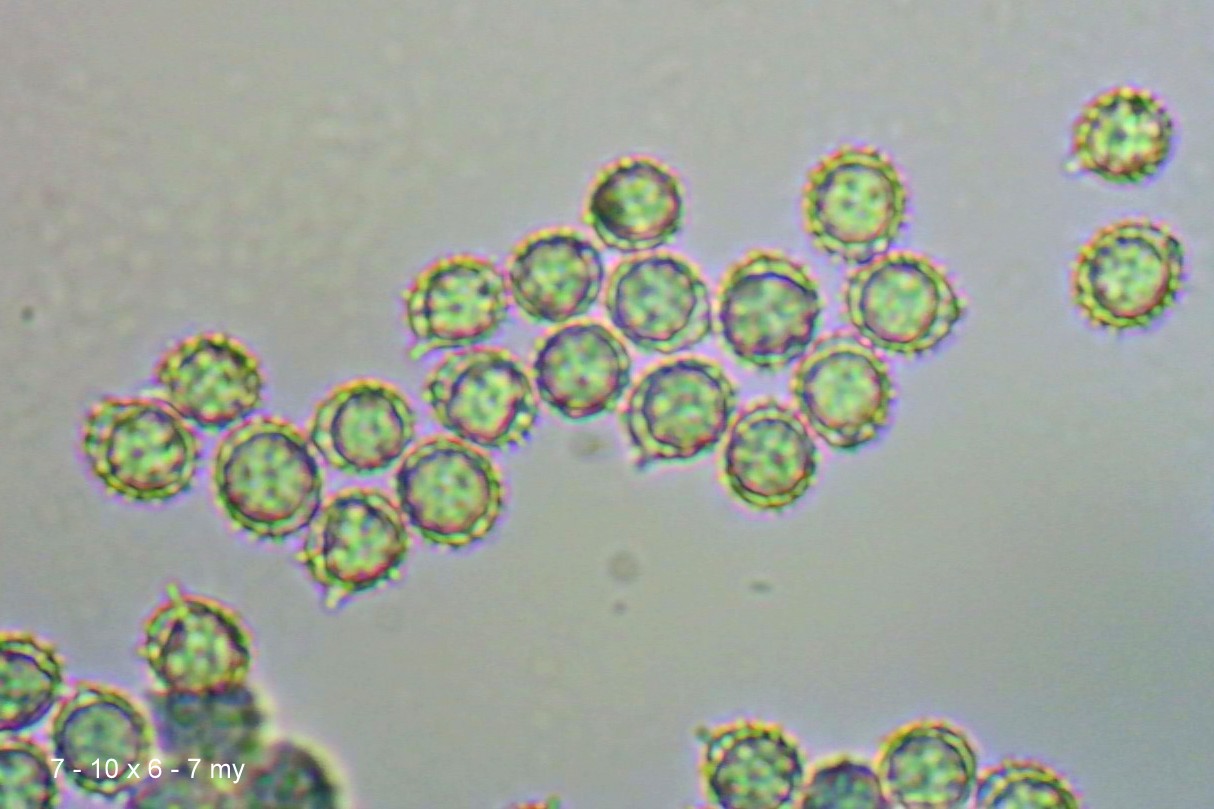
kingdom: Fungi
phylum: Basidiomycota
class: Agaricomycetes
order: Russulales
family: Russulaceae
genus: Russula
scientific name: Russula ochroleuca
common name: okkergul skørhat
